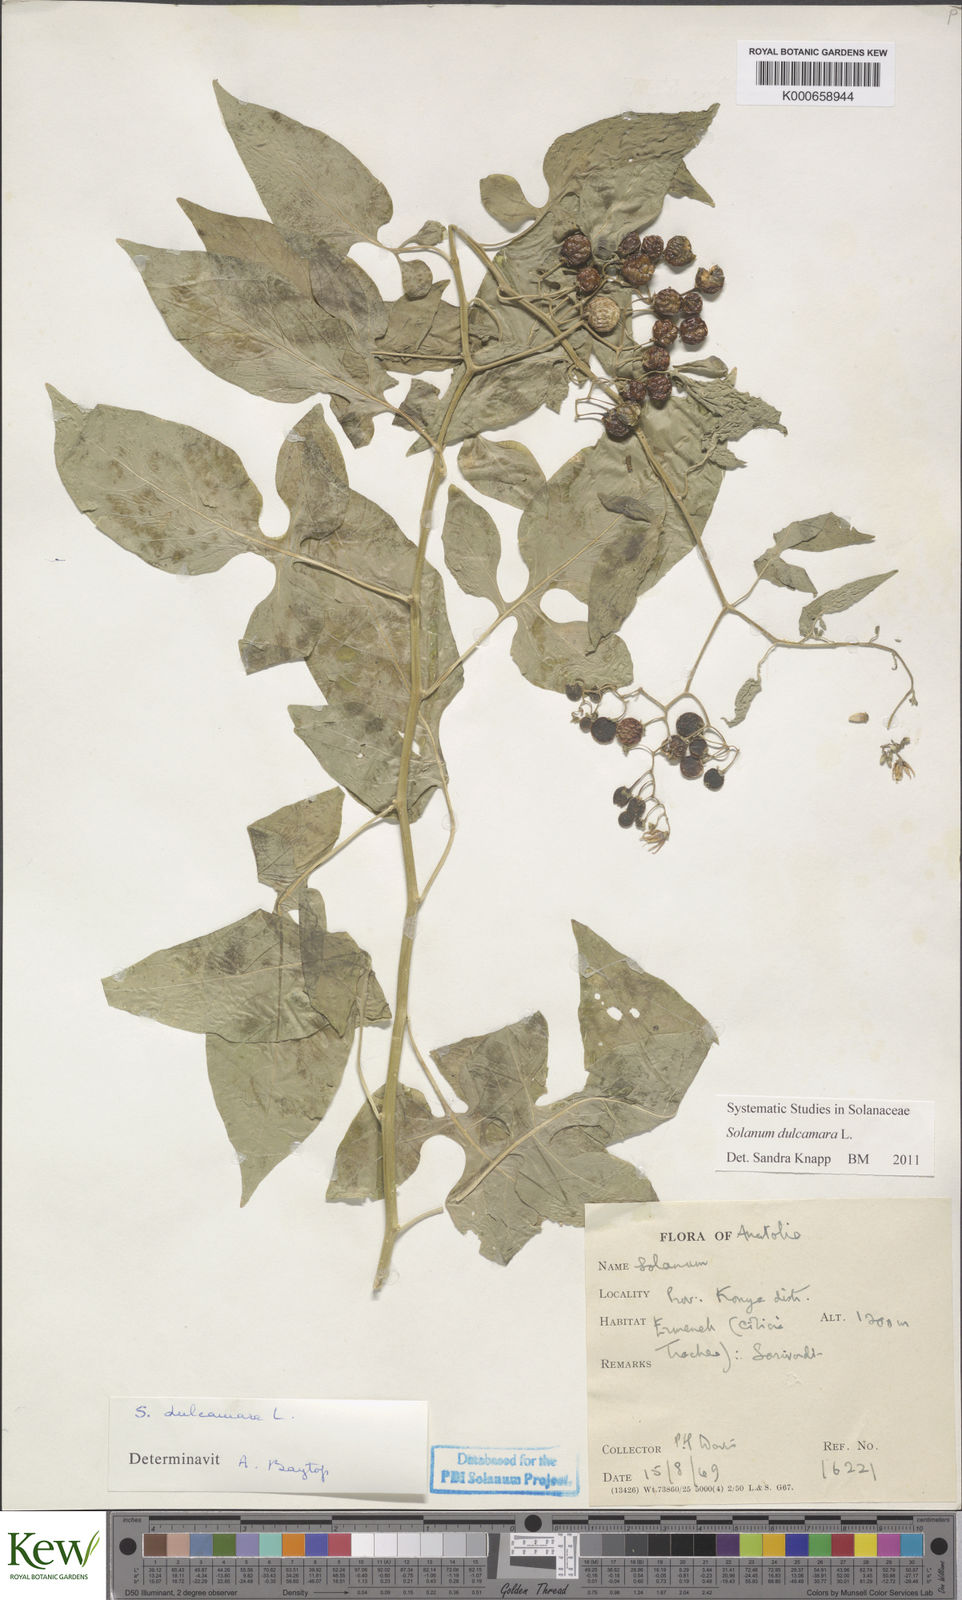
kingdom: Plantae
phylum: Tracheophyta
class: Magnoliopsida
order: Solanales
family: Solanaceae
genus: Solanum
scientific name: Solanum dulcamara
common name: Climbing nightshade
